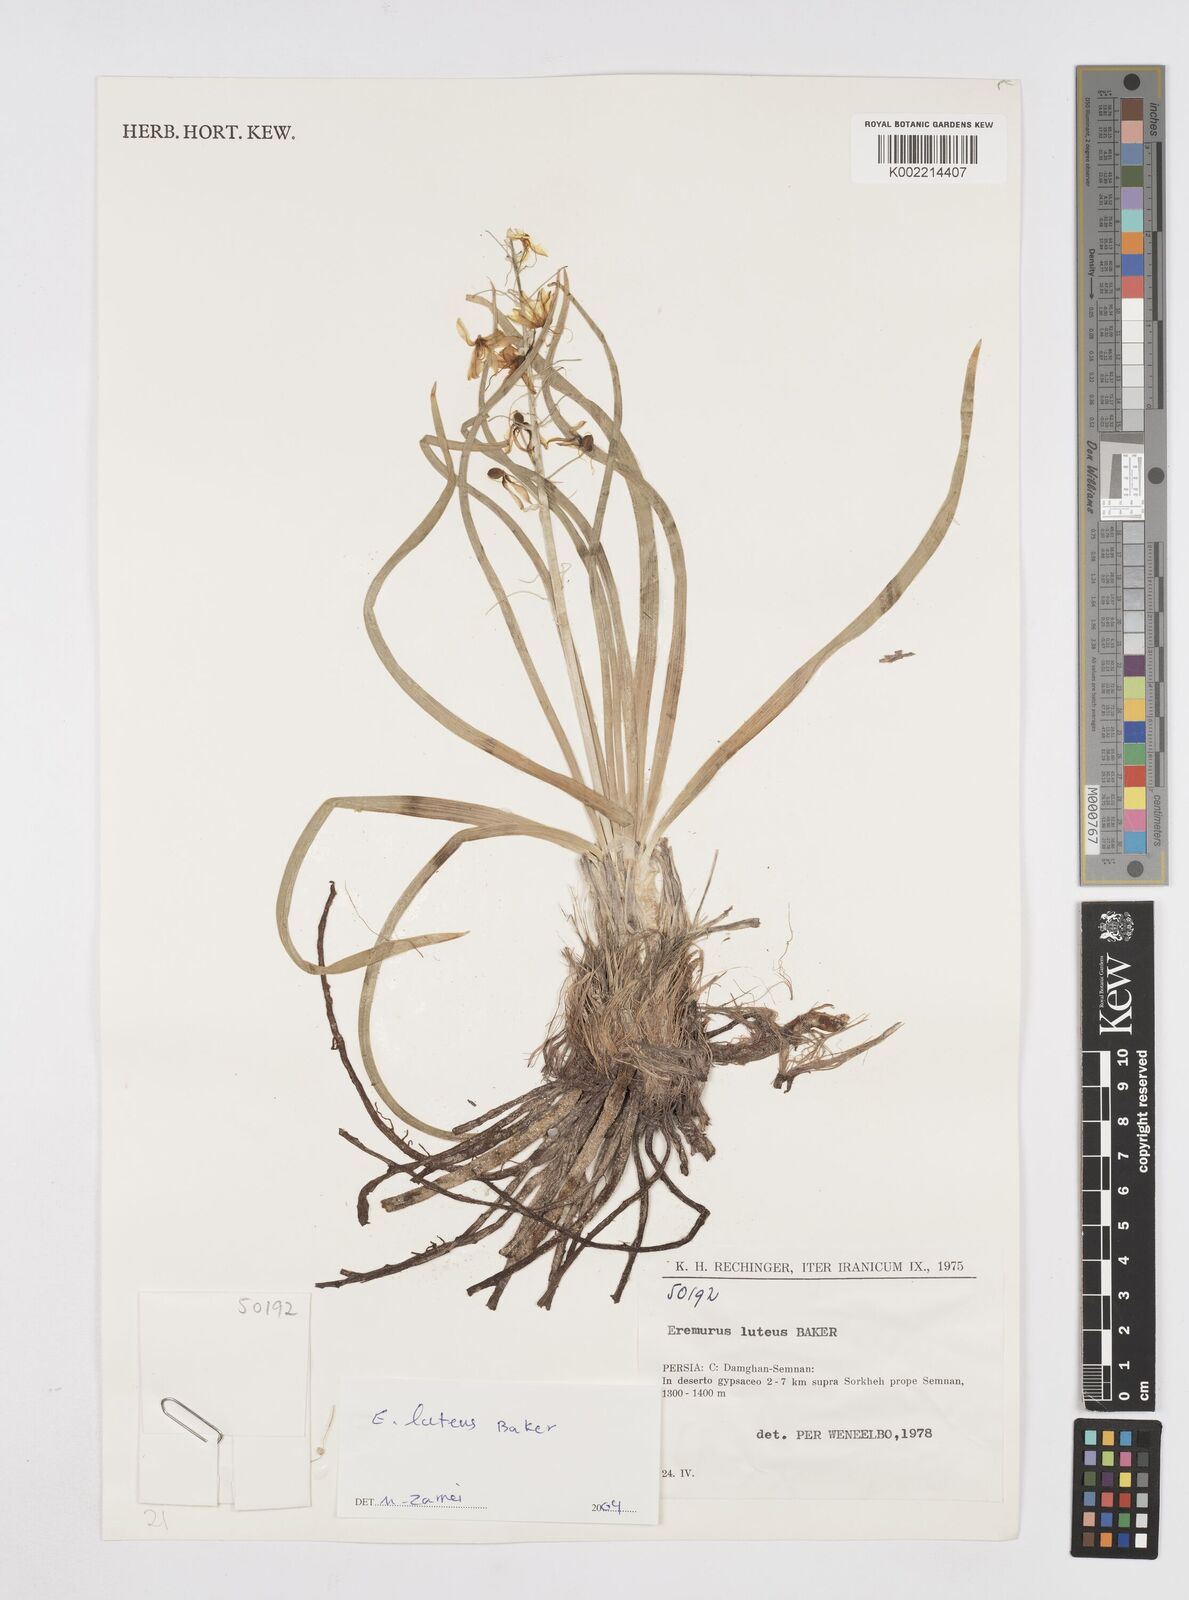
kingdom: Plantae
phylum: Tracheophyta
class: Liliopsida
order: Asparagales
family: Asphodelaceae
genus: Eremurus
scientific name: Eremurus luteus
